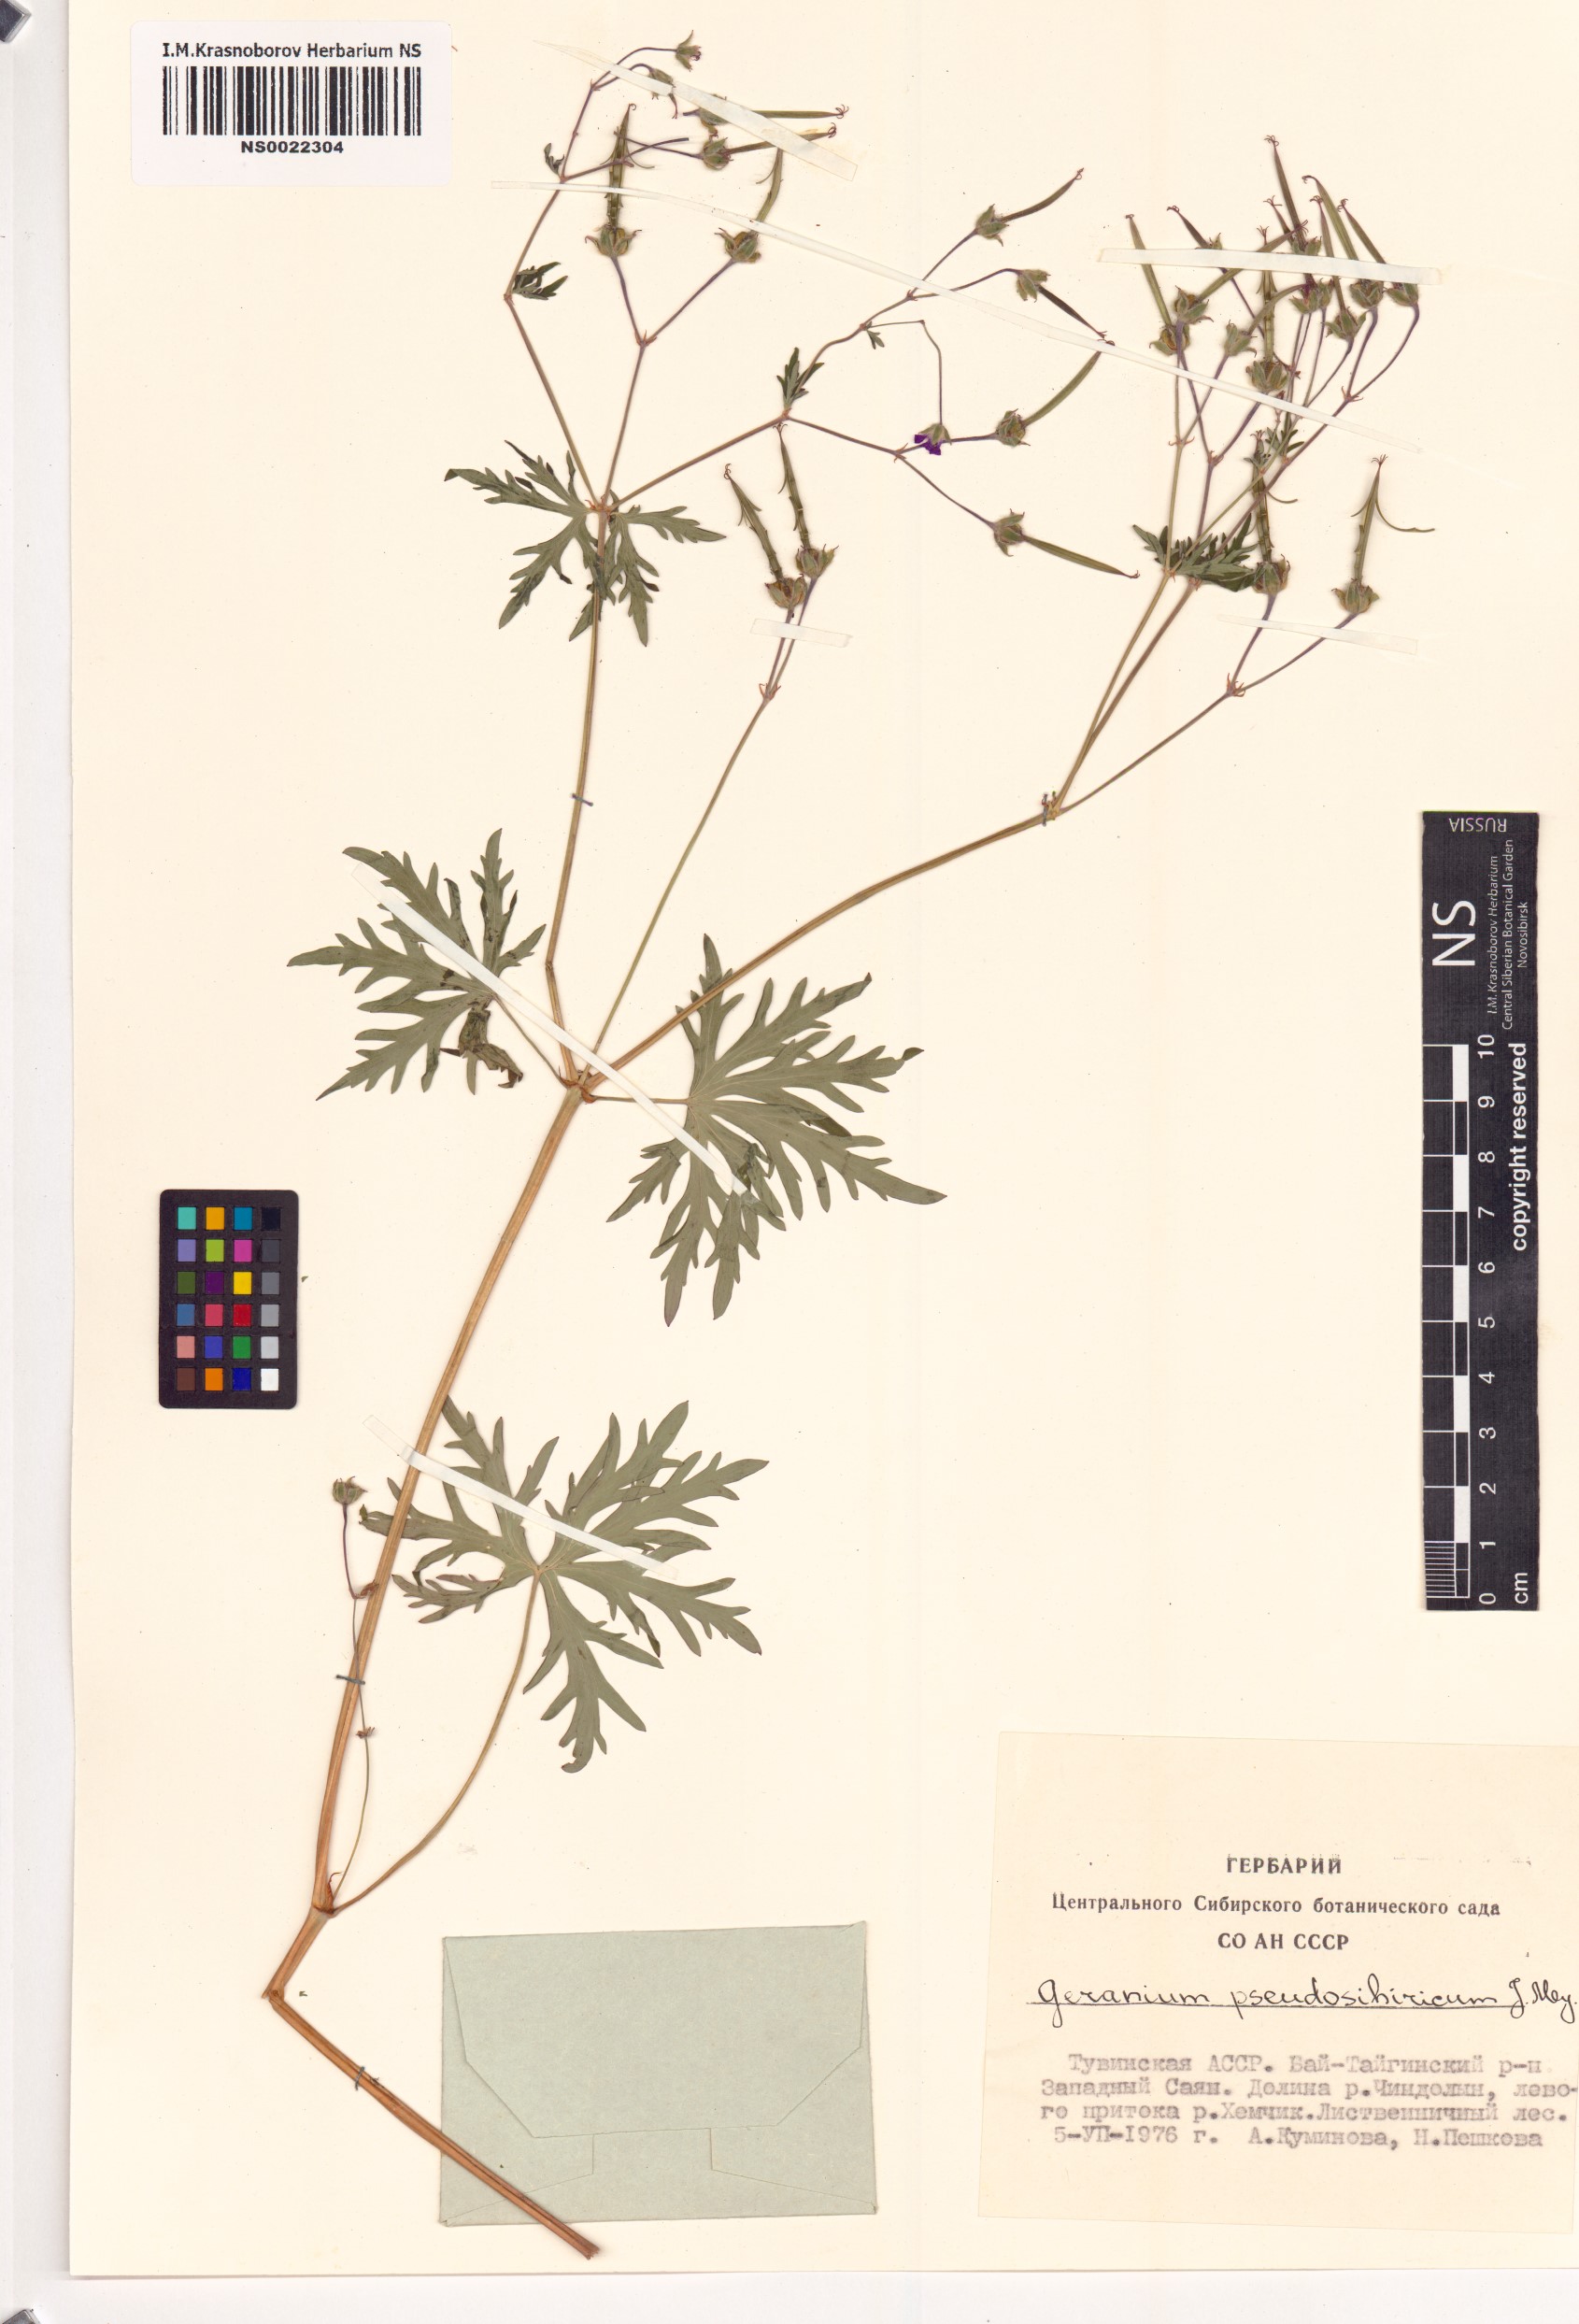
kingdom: Plantae
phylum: Tracheophyta
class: Magnoliopsida
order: Geraniales
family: Geraniaceae
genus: Geranium
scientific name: Geranium pseudosibiricum
